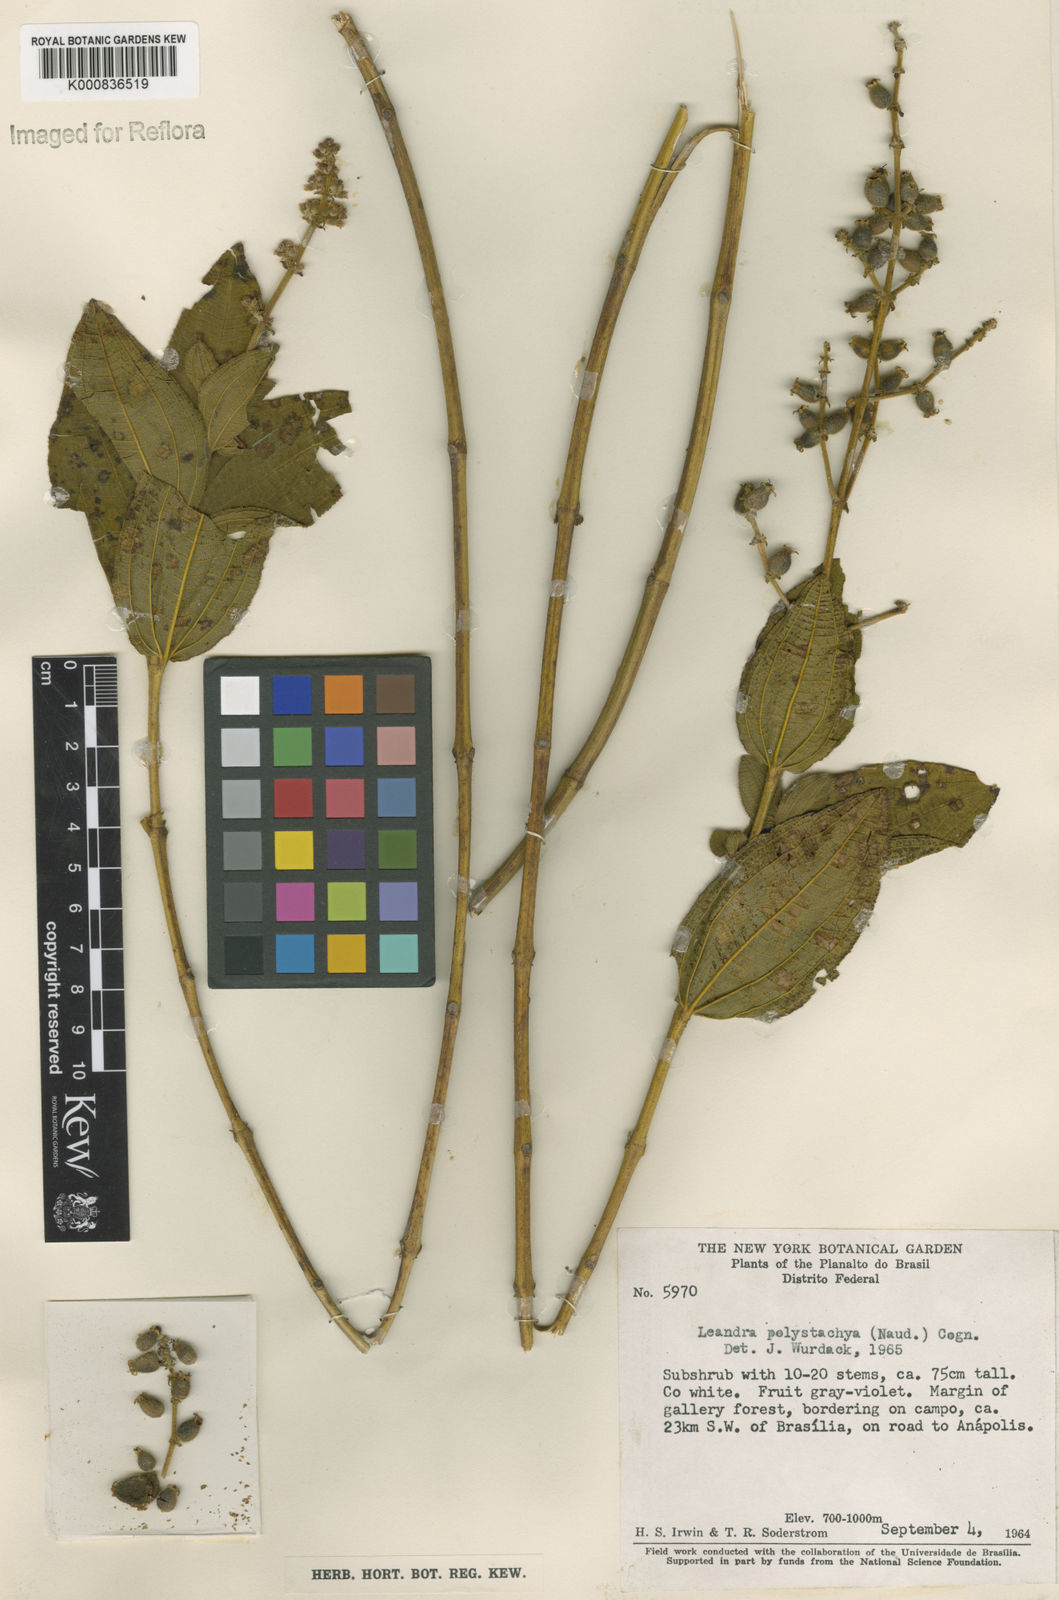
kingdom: Plantae
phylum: Tracheophyta
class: Magnoliopsida
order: Myrtales
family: Melastomataceae
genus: Miconia
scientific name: Miconia polystachya
